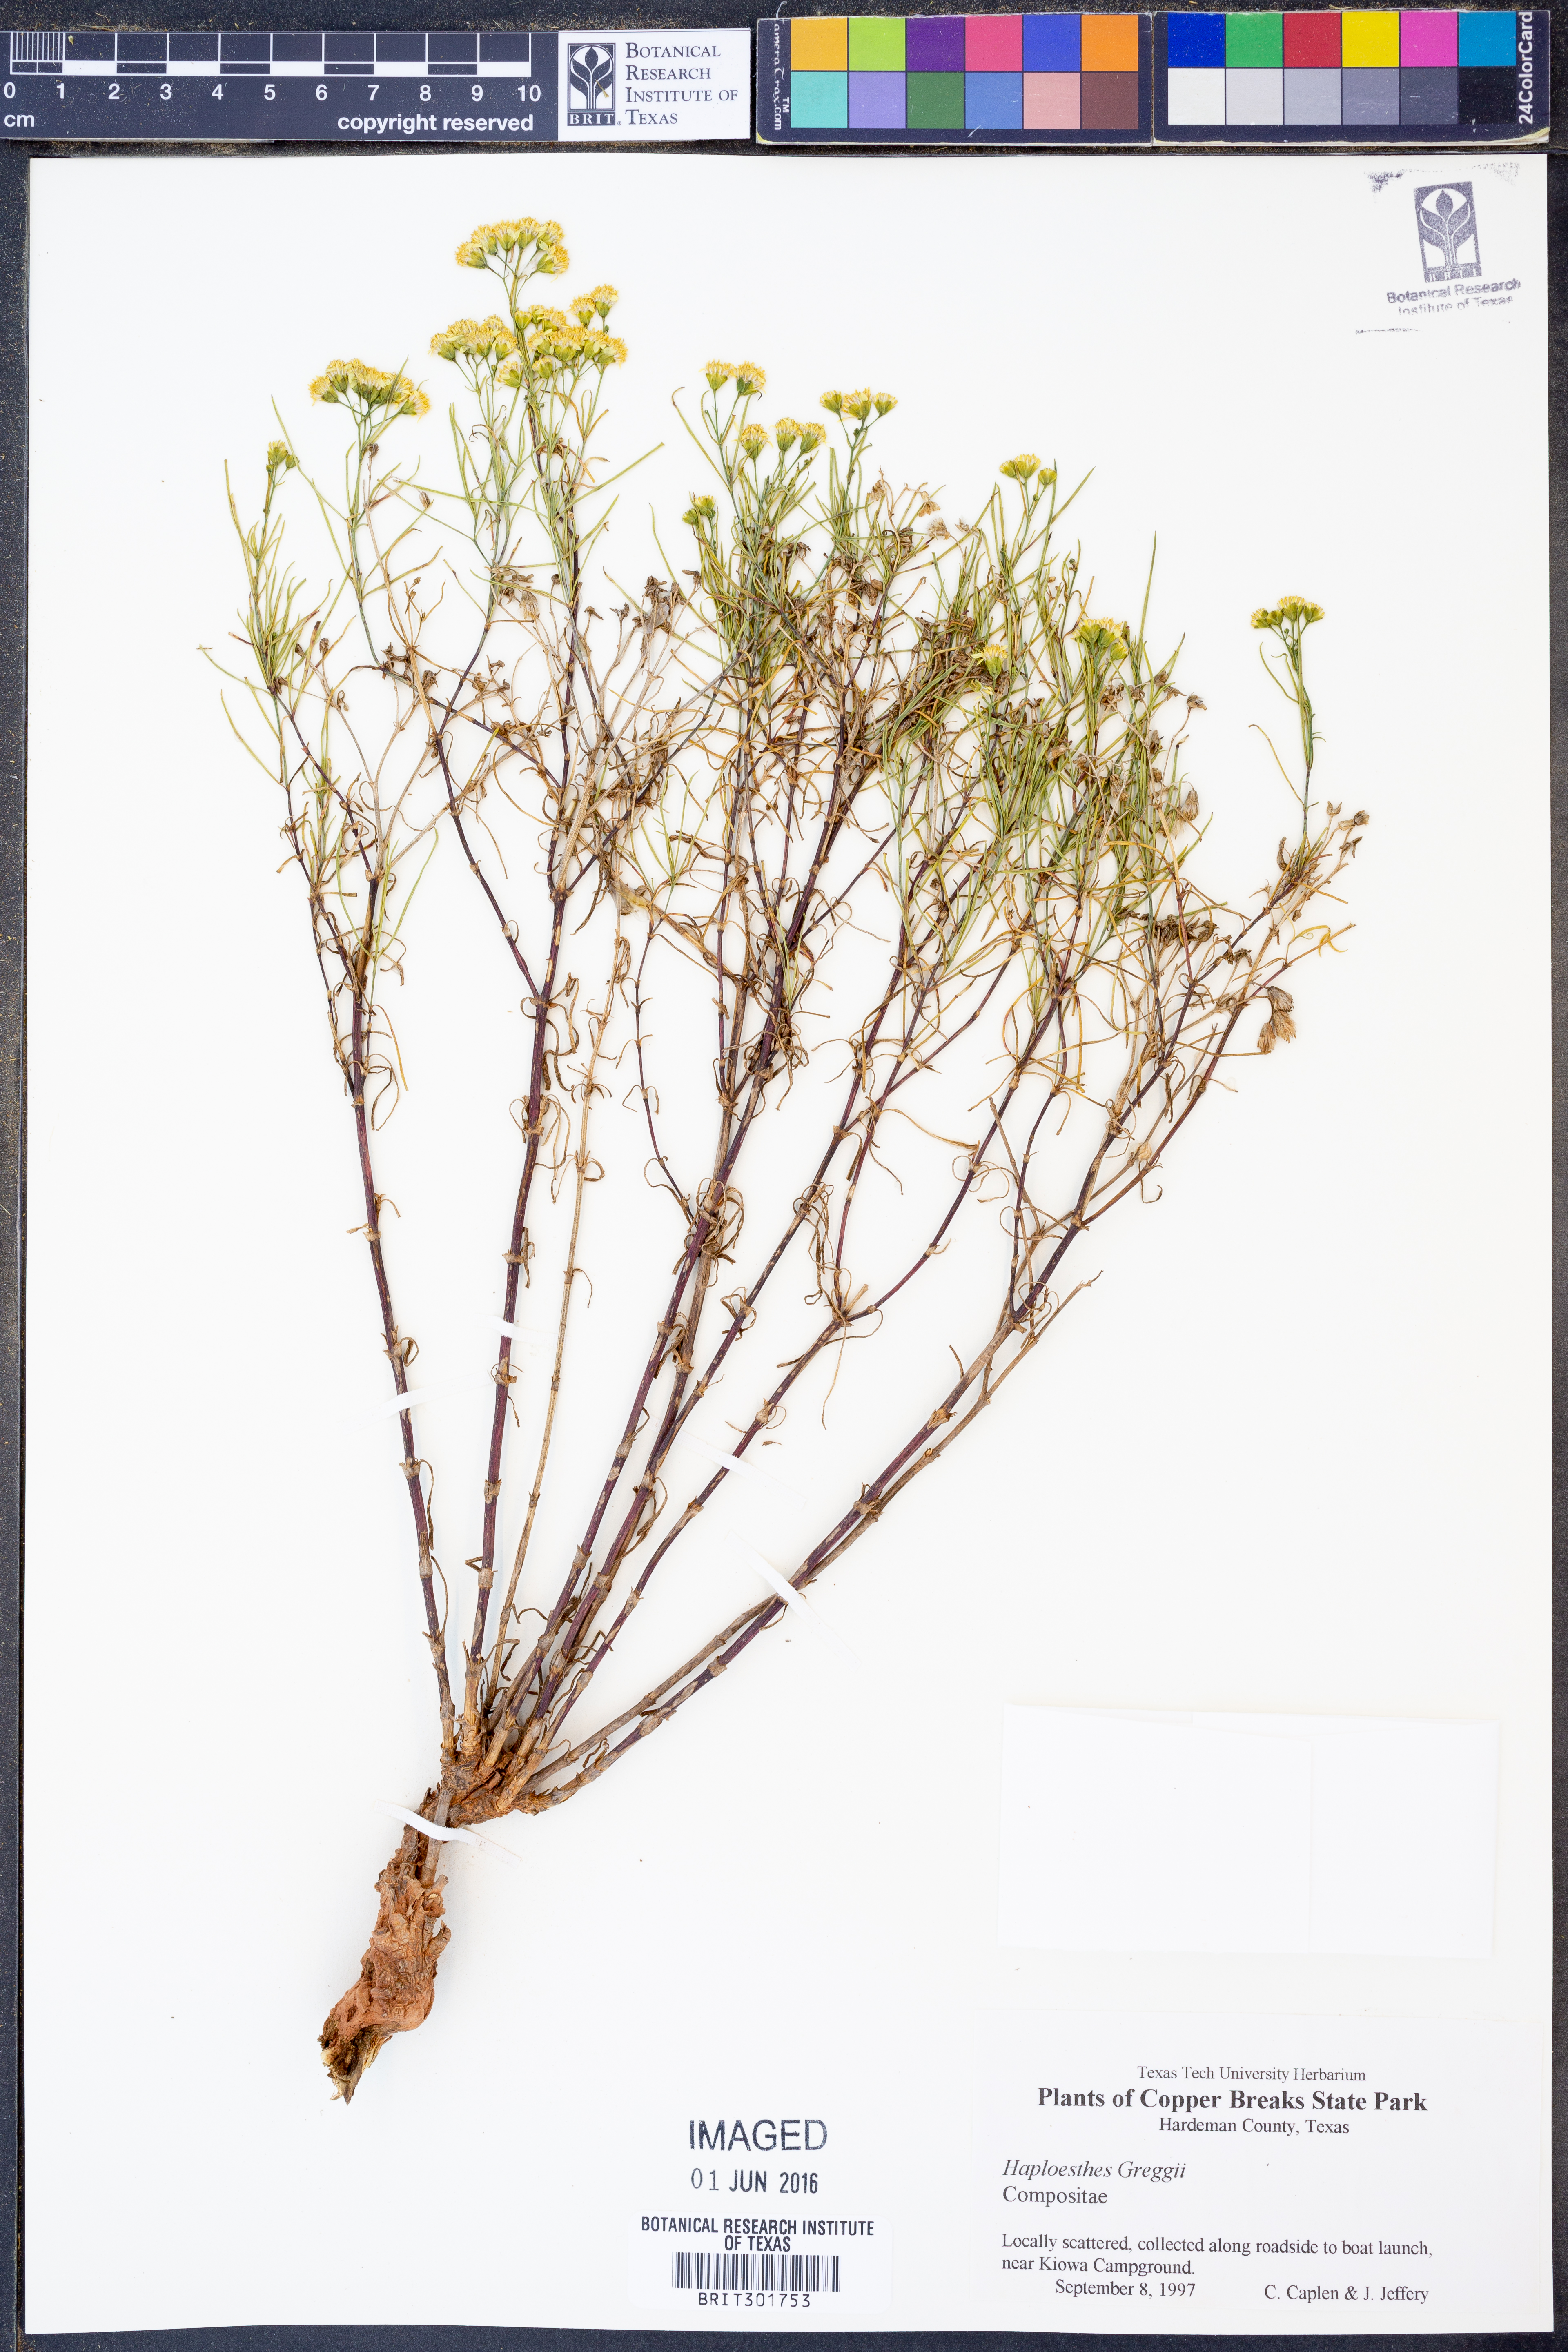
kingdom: Plantae
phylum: Tracheophyta
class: Magnoliopsida
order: Asterales
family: Asteraceae
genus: Haploesthes
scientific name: Haploesthes greggii
